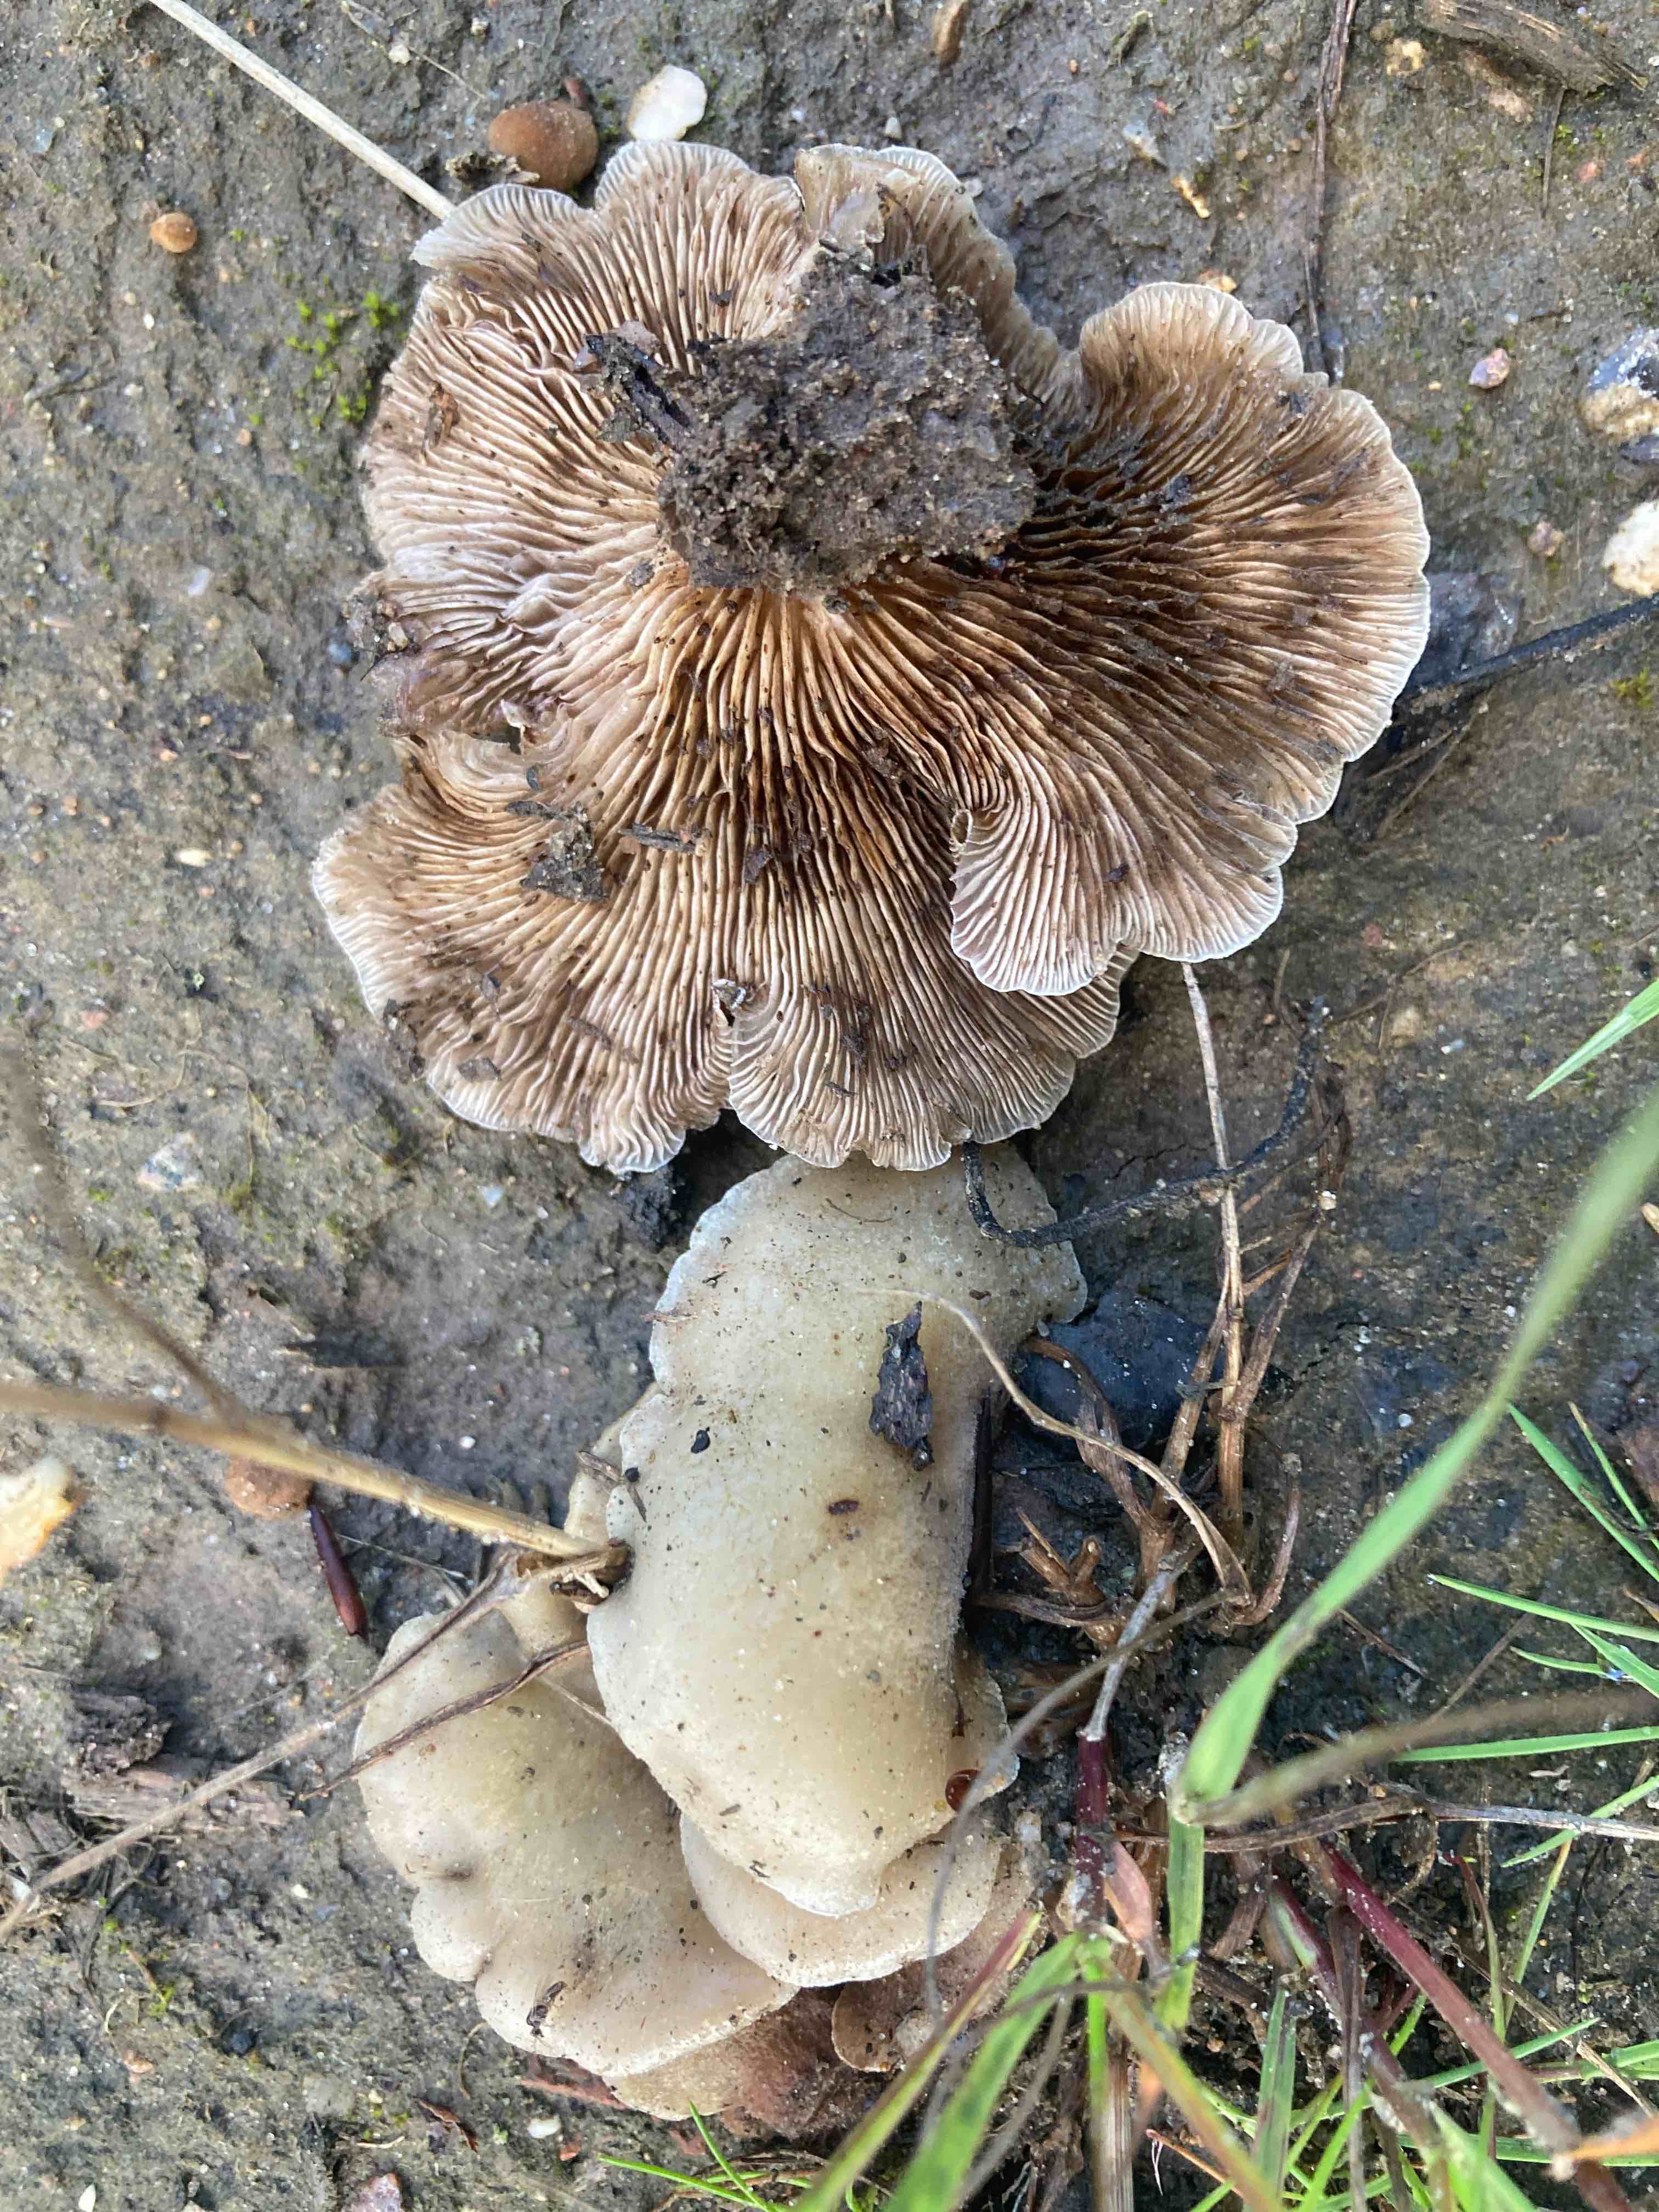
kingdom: Fungi
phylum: Basidiomycota
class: Agaricomycetes
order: Agaricales
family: Crepidotaceae
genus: Crepidotus
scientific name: Crepidotus mollis
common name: blød muslingesvamp
